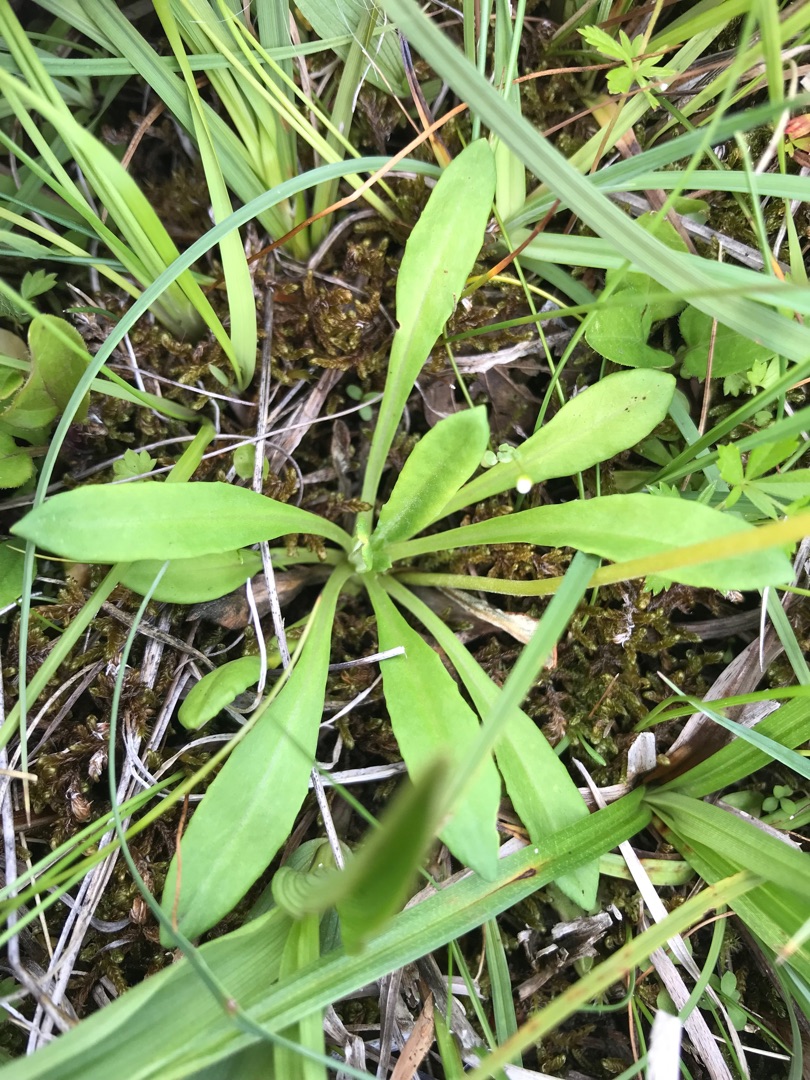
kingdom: Plantae
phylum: Tracheophyta
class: Magnoliopsida
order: Ericales
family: Primulaceae
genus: Primula
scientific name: Primula farinosa
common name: Melet kodriver
